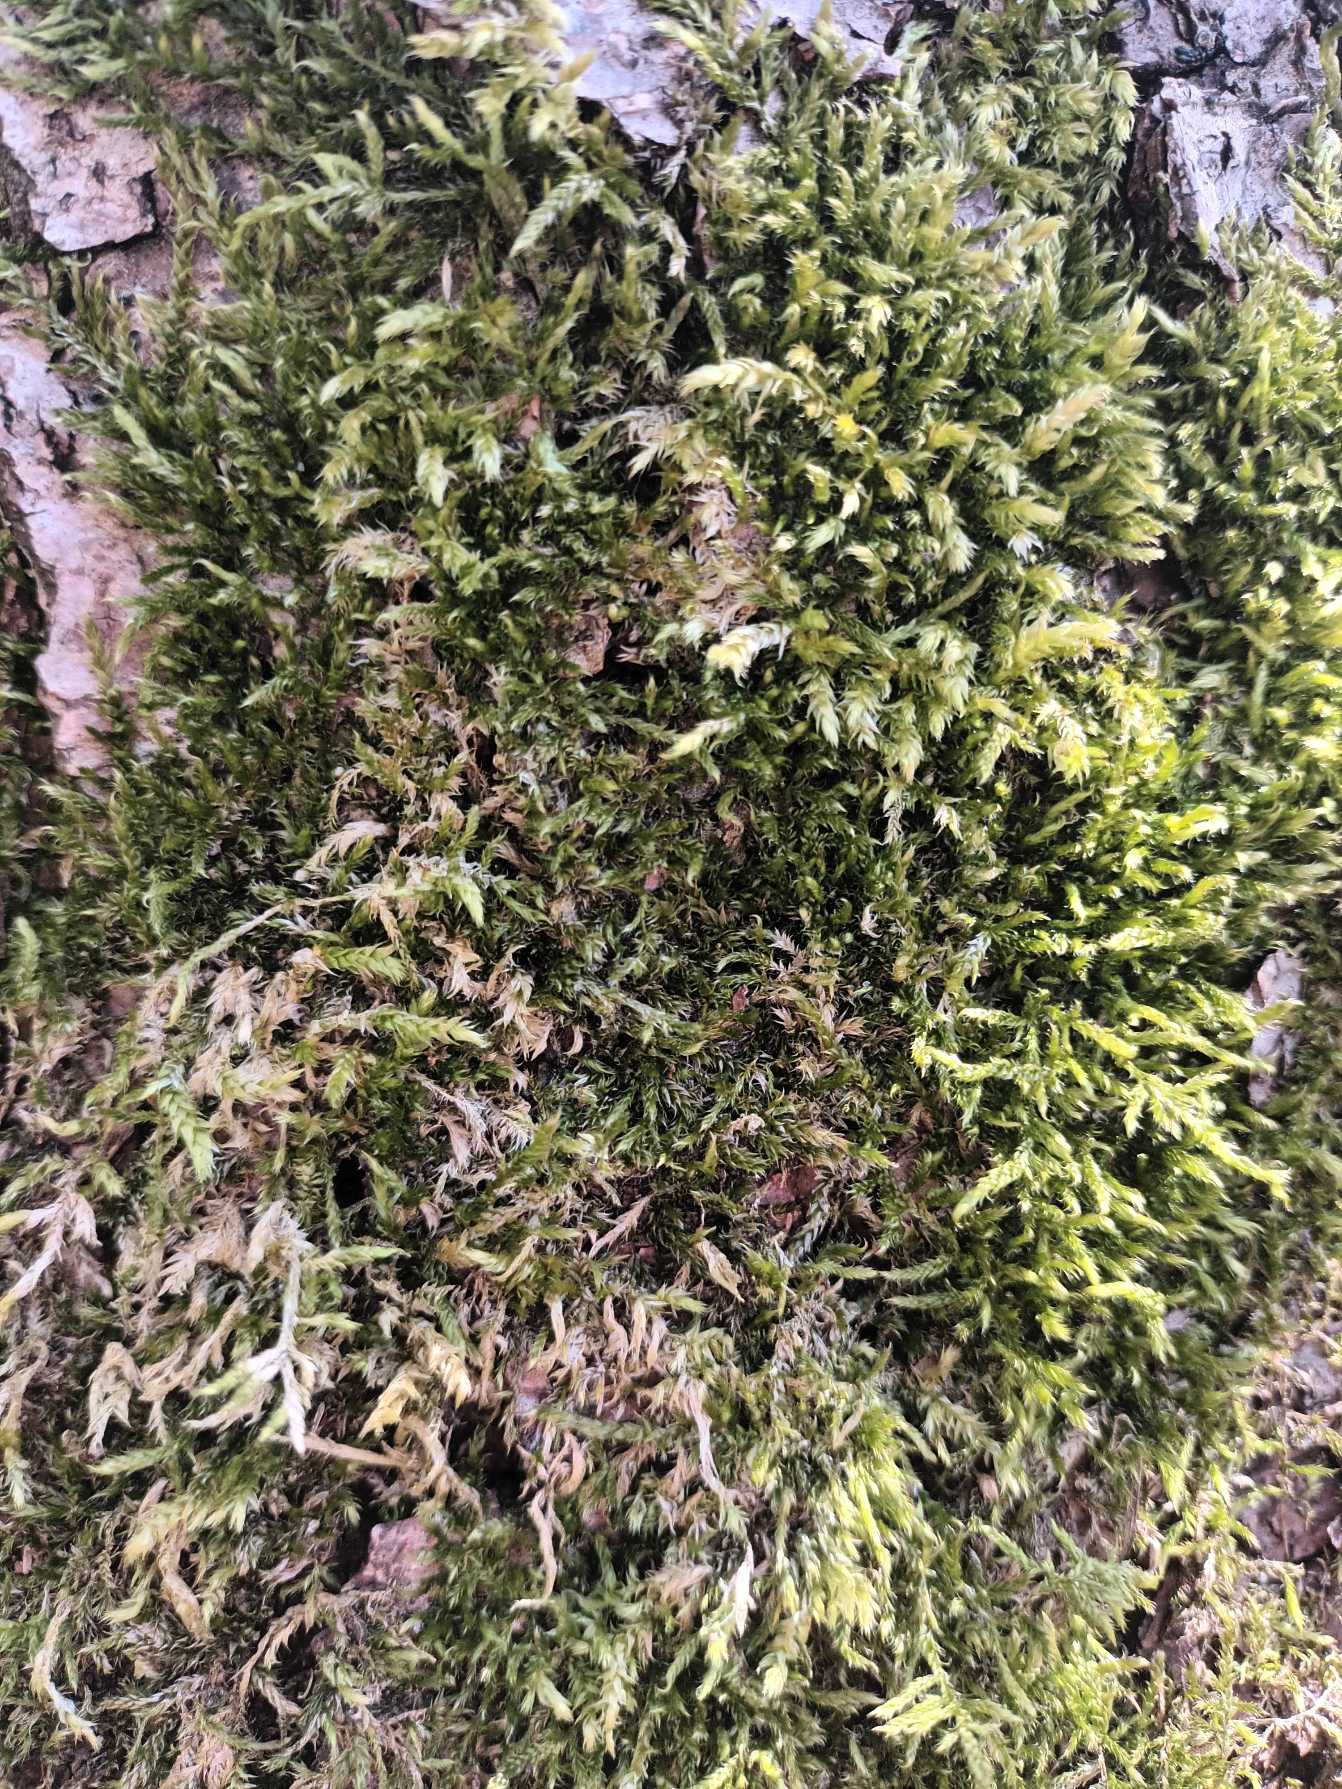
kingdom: Plantae
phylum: Bryophyta
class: Bryopsida
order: Hypnales
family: Brachytheciaceae
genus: Brachythecium
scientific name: Brachythecium rutabulum
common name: Almindelig kortkapsel
